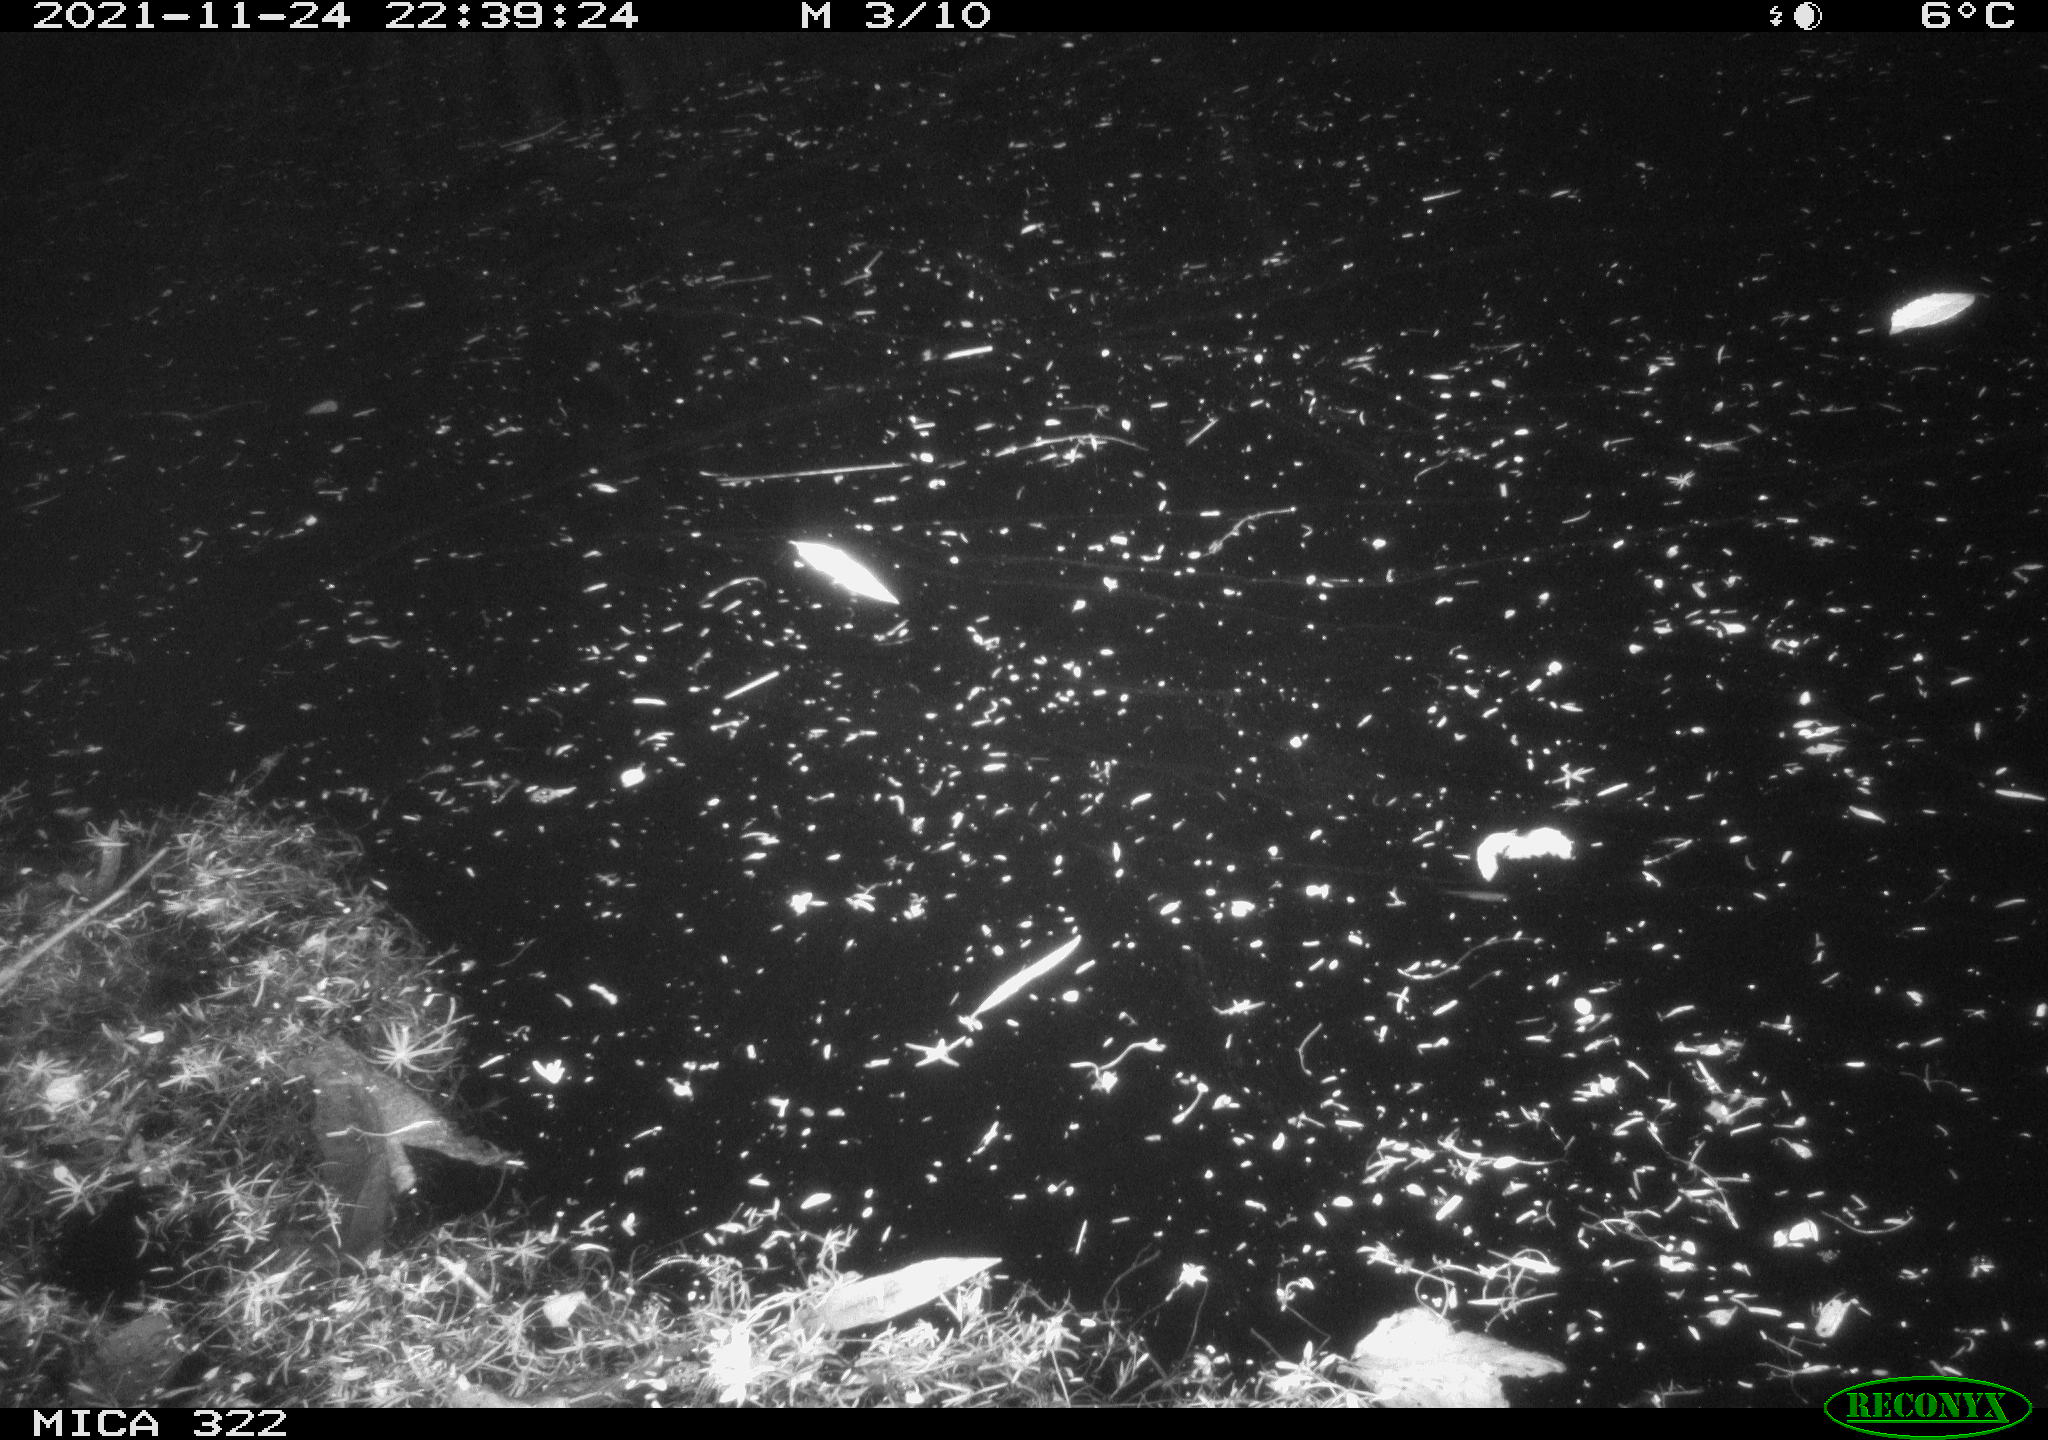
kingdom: Animalia
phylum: Chordata
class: Mammalia
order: Rodentia
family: Muridae
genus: Rattus
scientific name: Rattus norvegicus
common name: Brown rat
